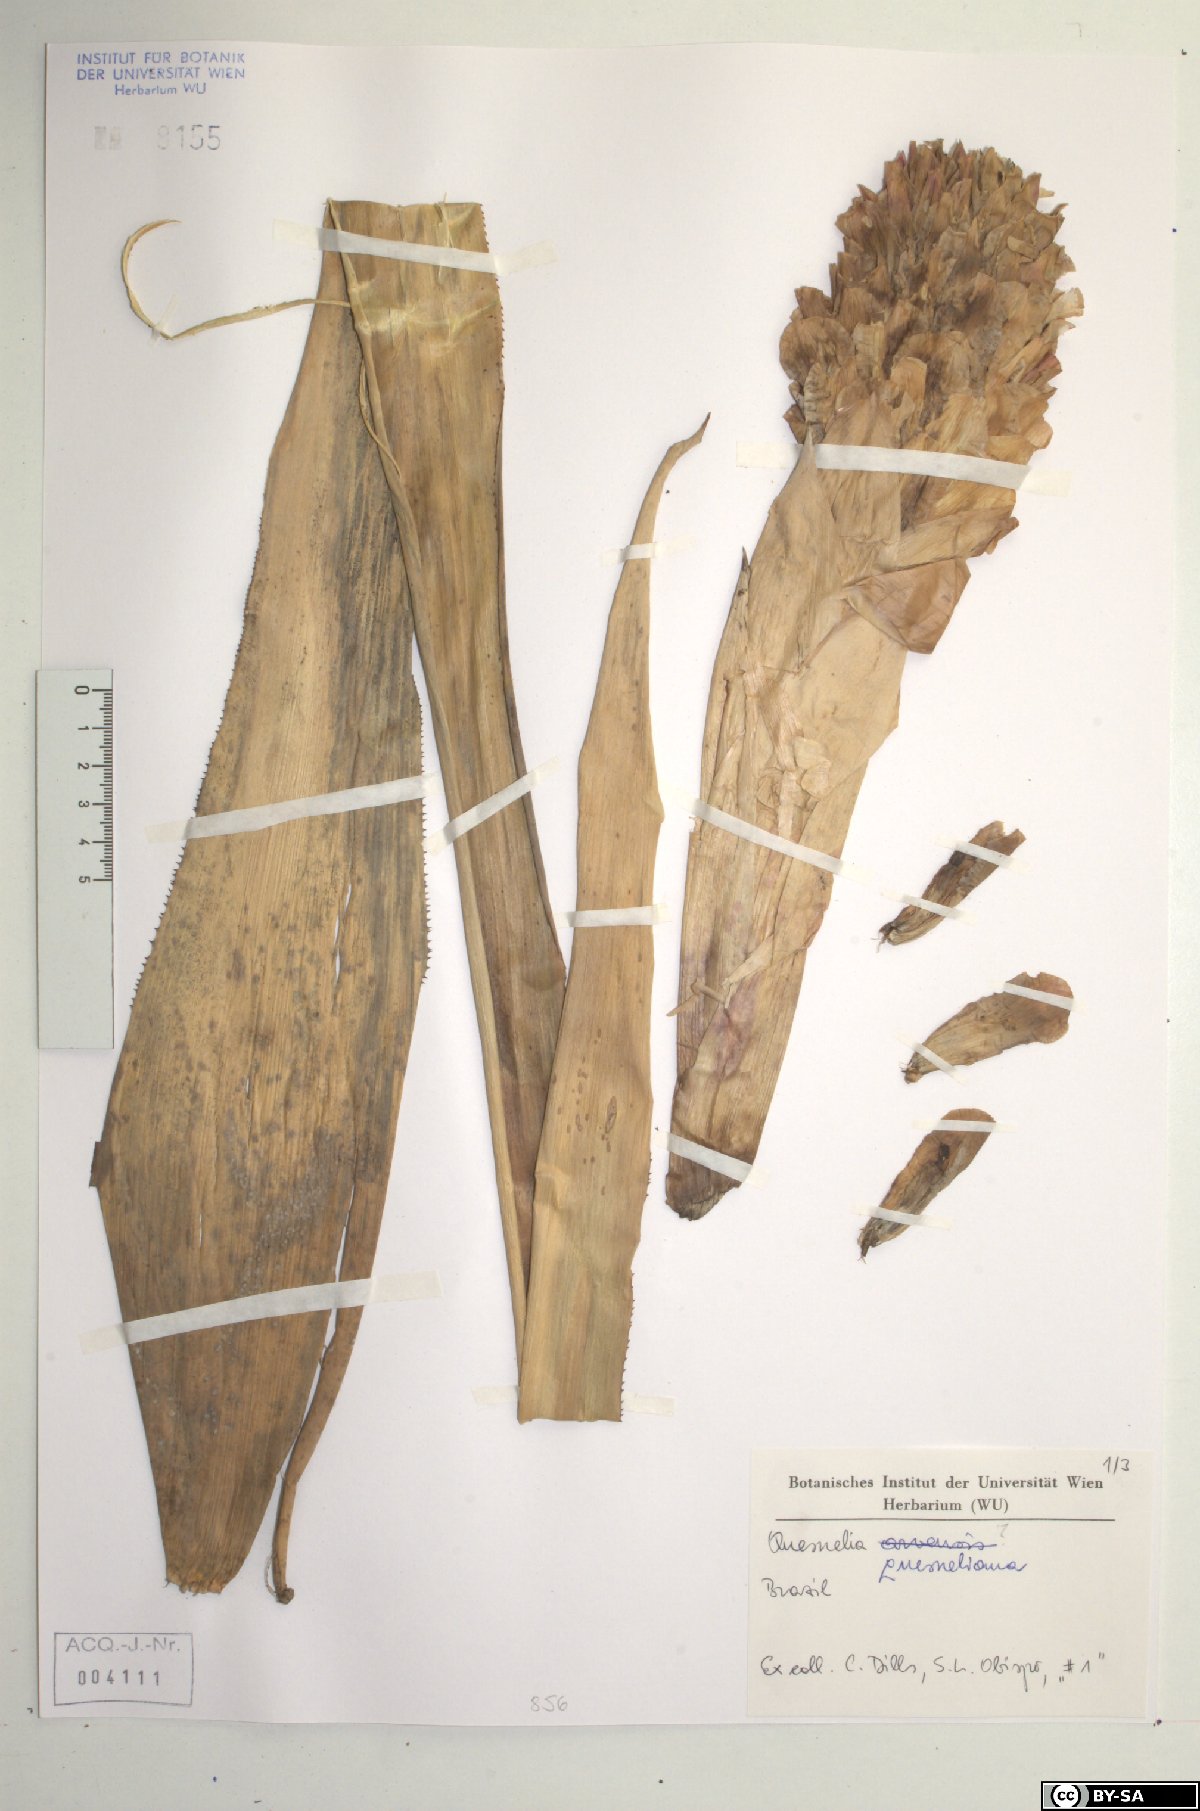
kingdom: Plantae
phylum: Tracheophyta
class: Liliopsida
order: Poales
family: Bromeliaceae
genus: Quesnelia
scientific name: Quesnelia
